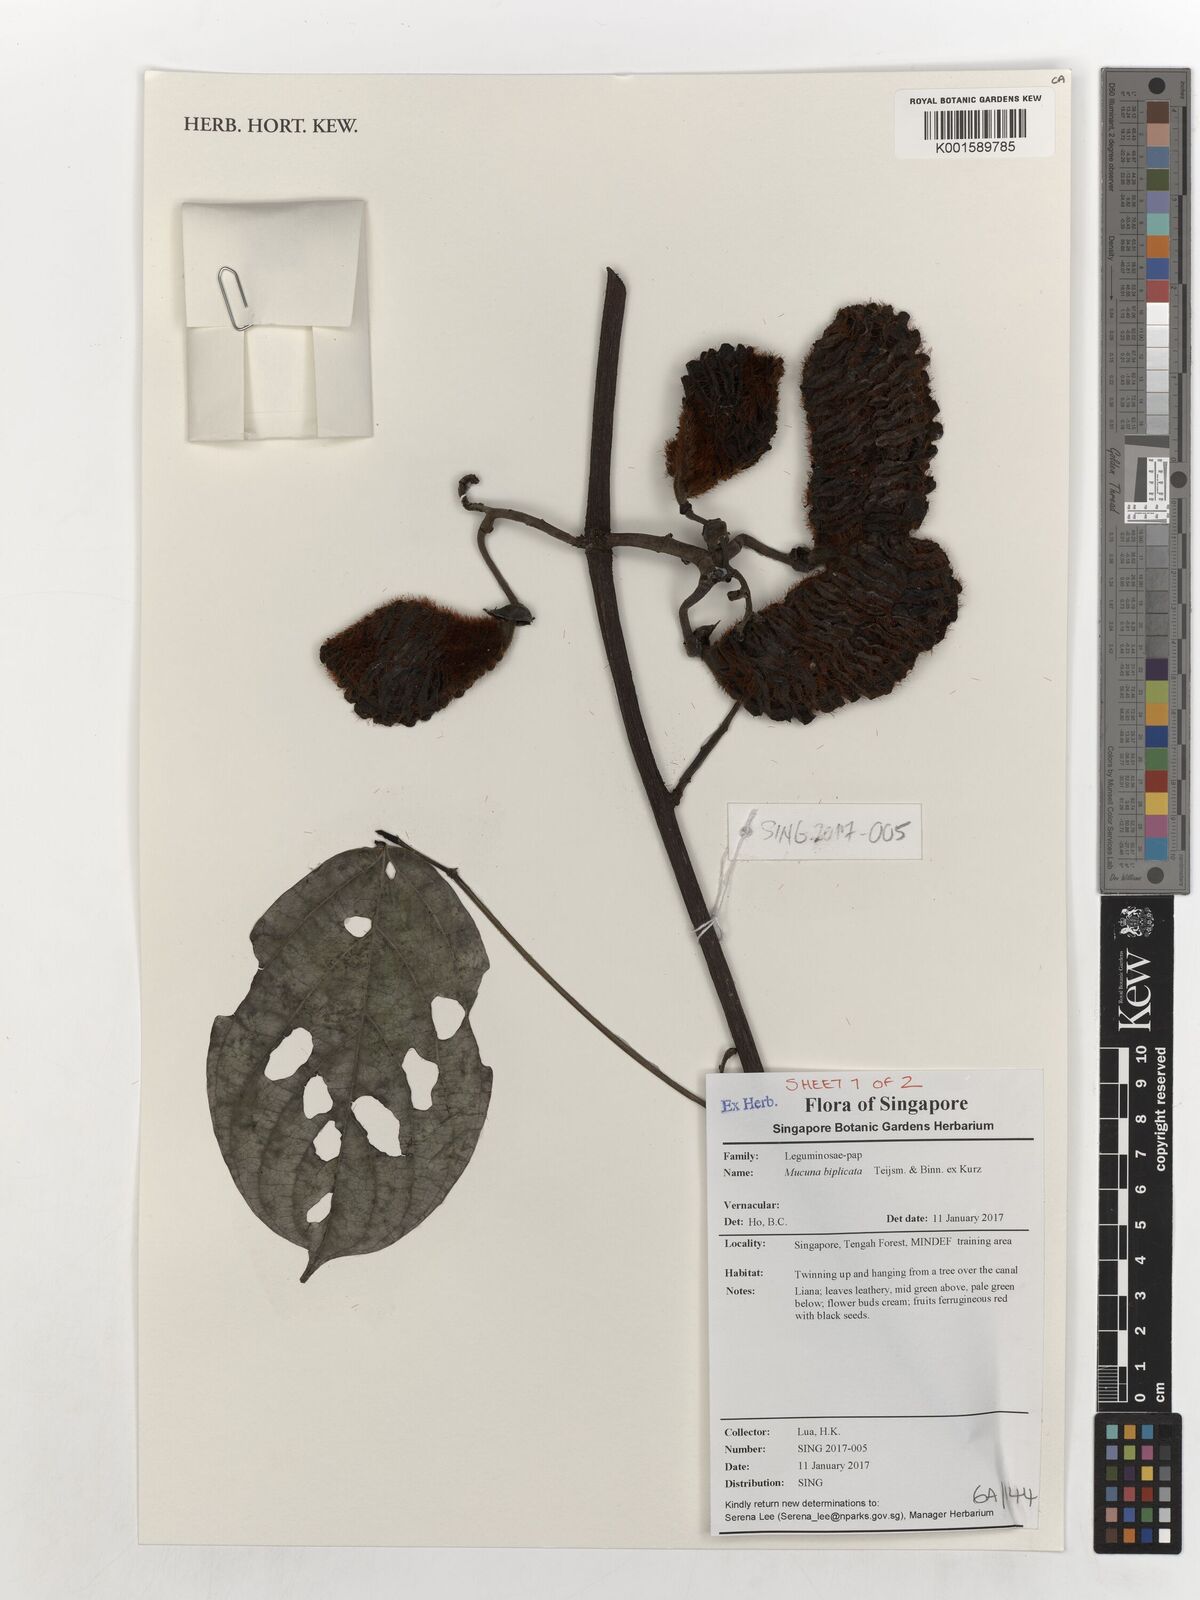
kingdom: Plantae
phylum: Tracheophyta
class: Magnoliopsida
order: Fabales
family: Fabaceae
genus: Mucuna
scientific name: Mucuna biplicata
